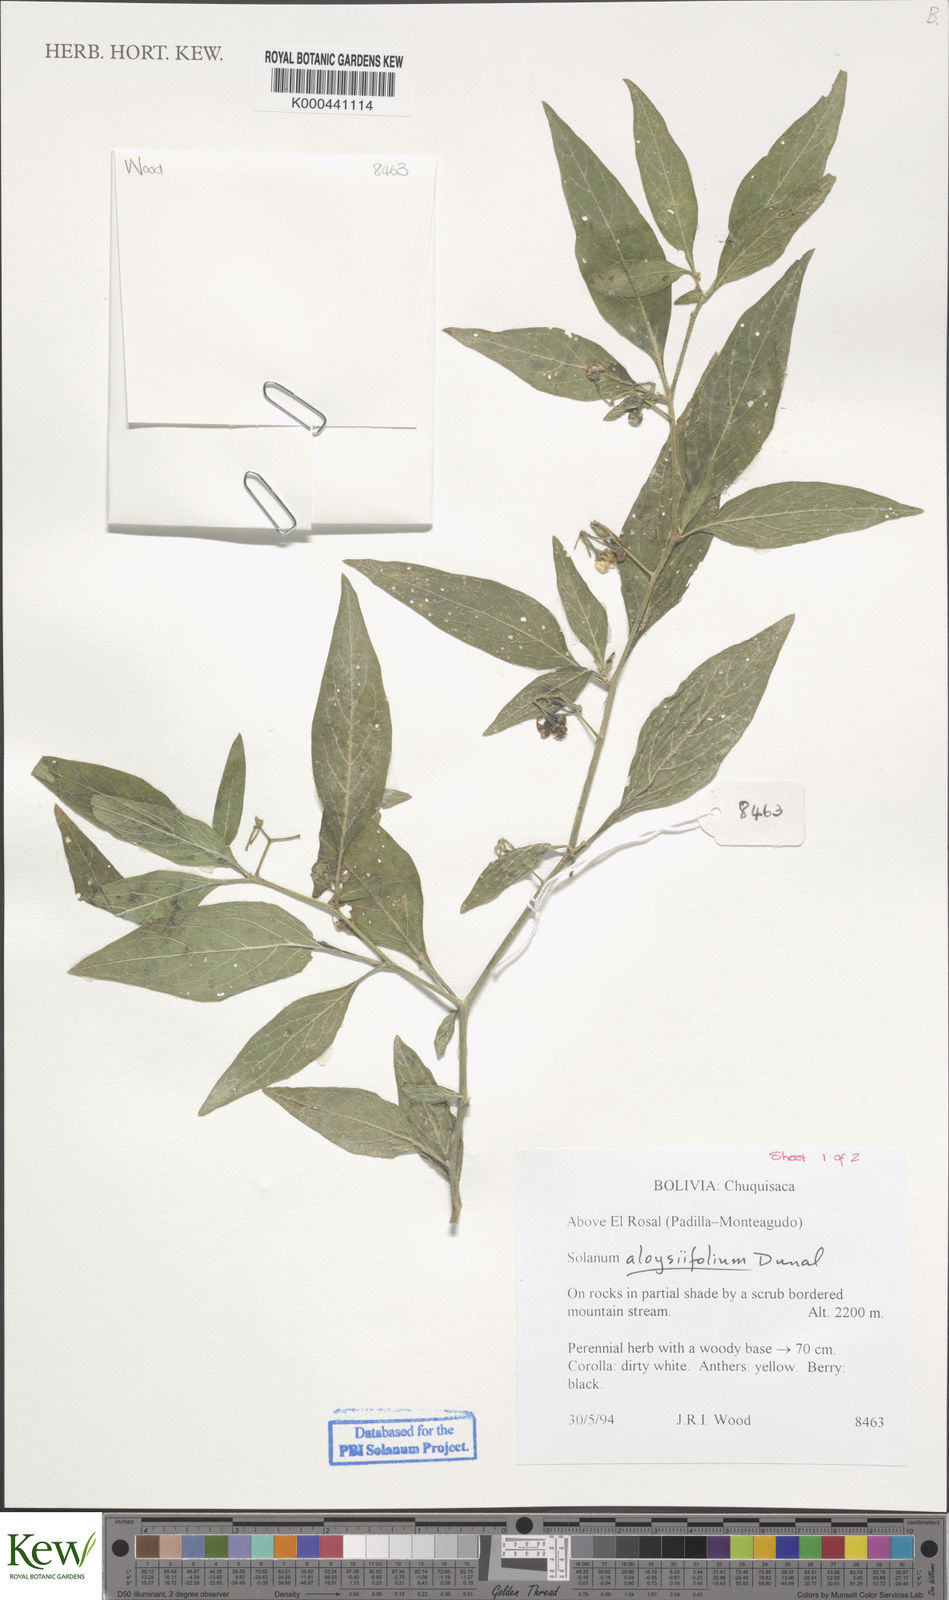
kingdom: Plantae
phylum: Tracheophyta
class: Magnoliopsida
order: Solanales
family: Solanaceae
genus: Solanum
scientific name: Solanum aloysiifolium
